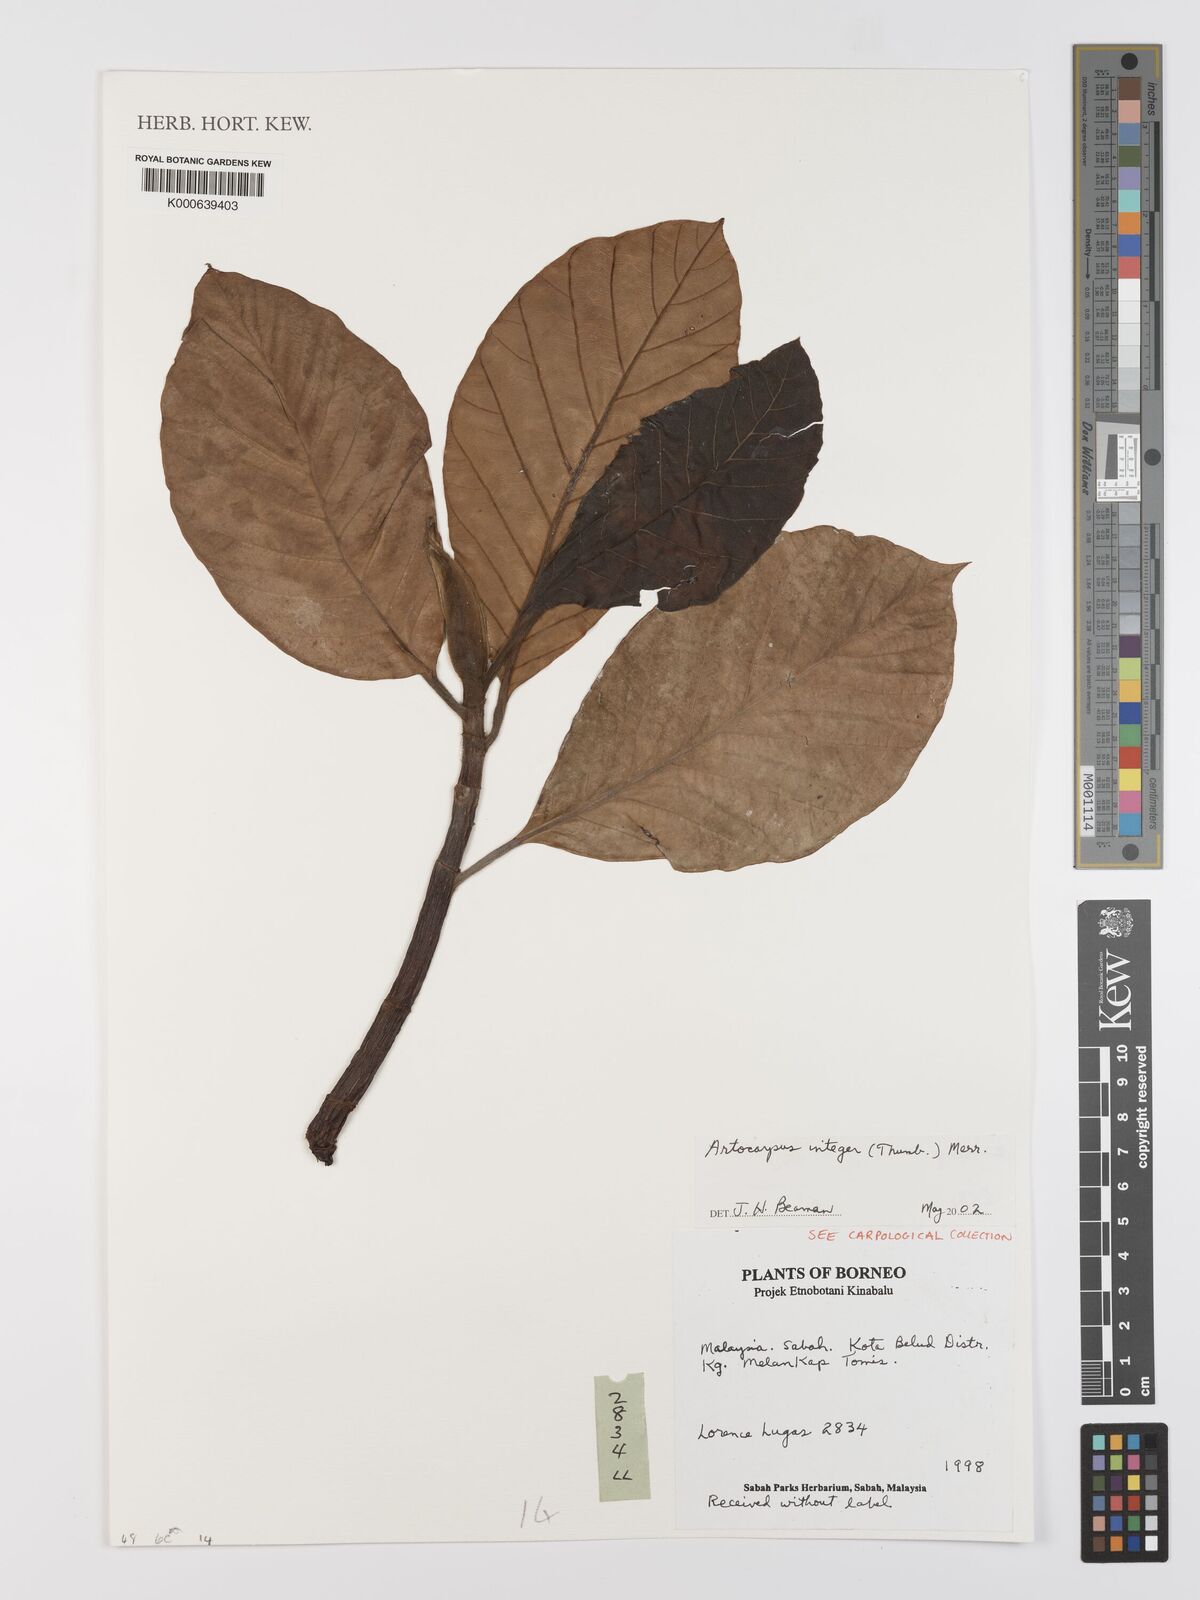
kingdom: Plantae
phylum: Tracheophyta
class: Magnoliopsida
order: Rosales
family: Moraceae
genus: Artocarpus
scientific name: Artocarpus integer
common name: Chempedak
